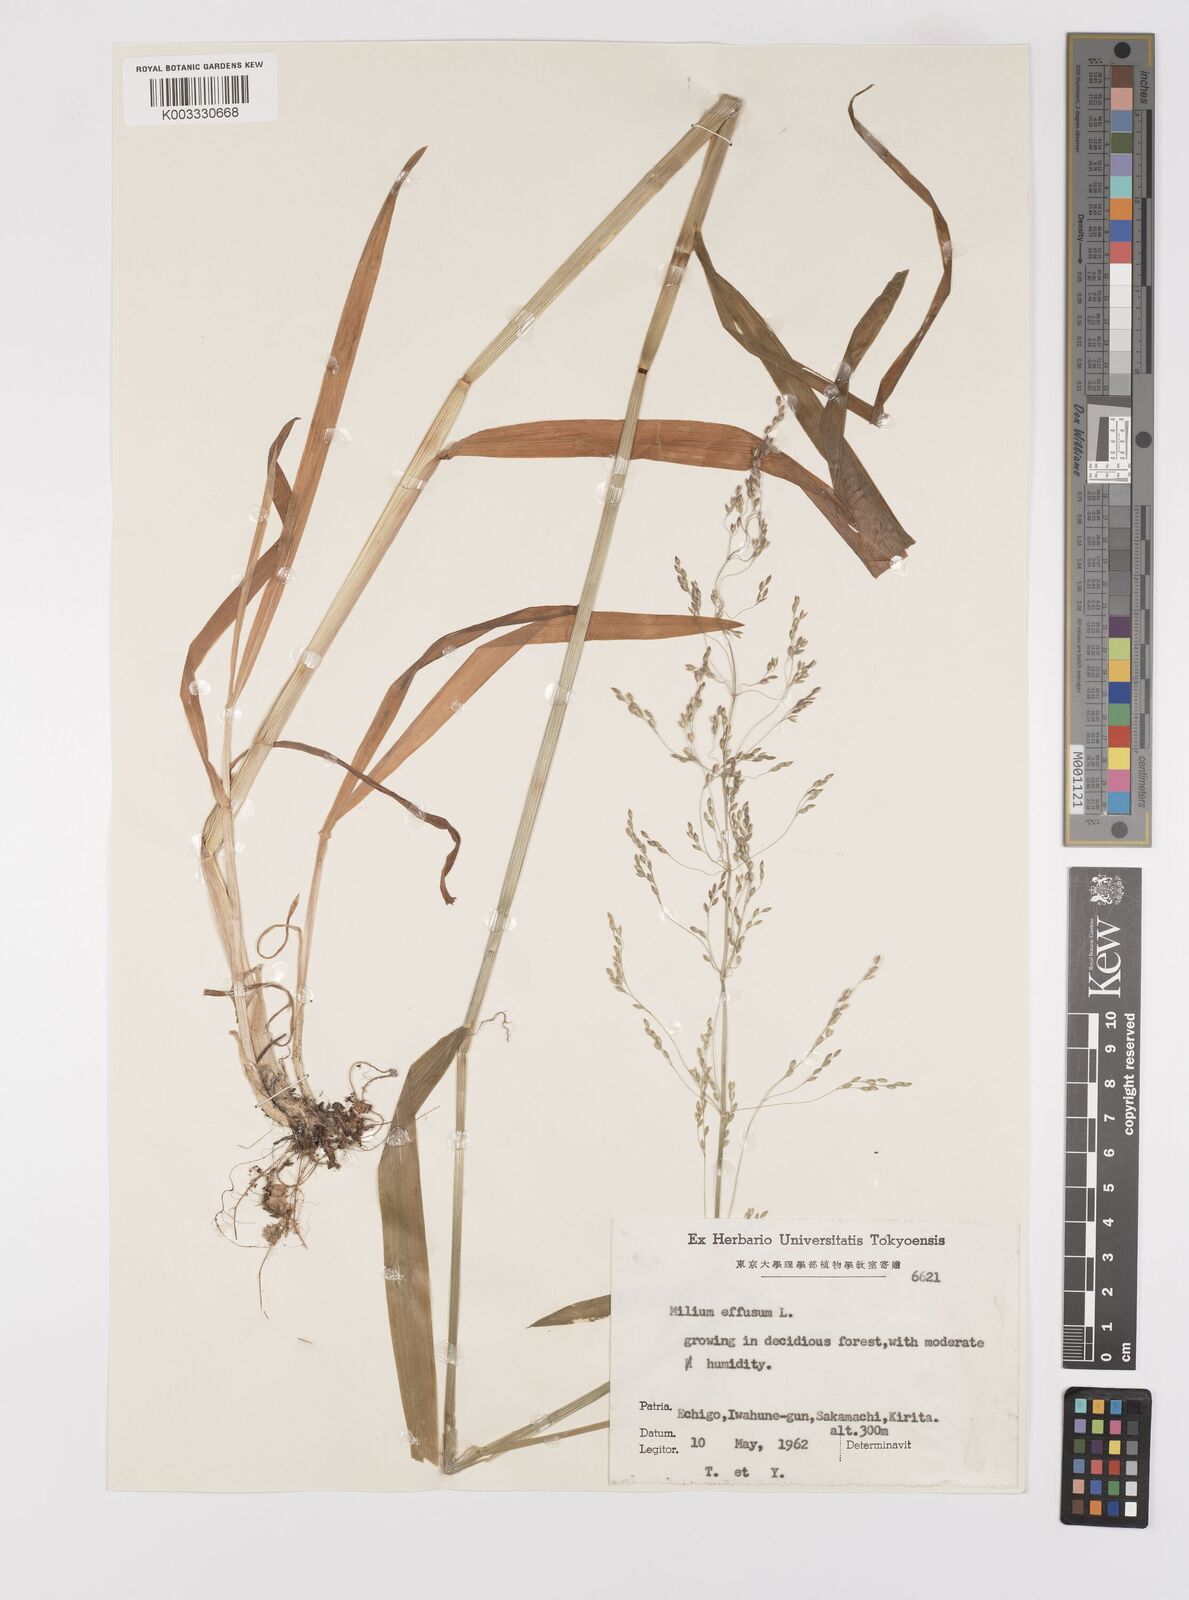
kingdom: Plantae
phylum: Tracheophyta
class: Liliopsida
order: Poales
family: Poaceae
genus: Milium
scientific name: Milium effusum
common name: Wood millet
